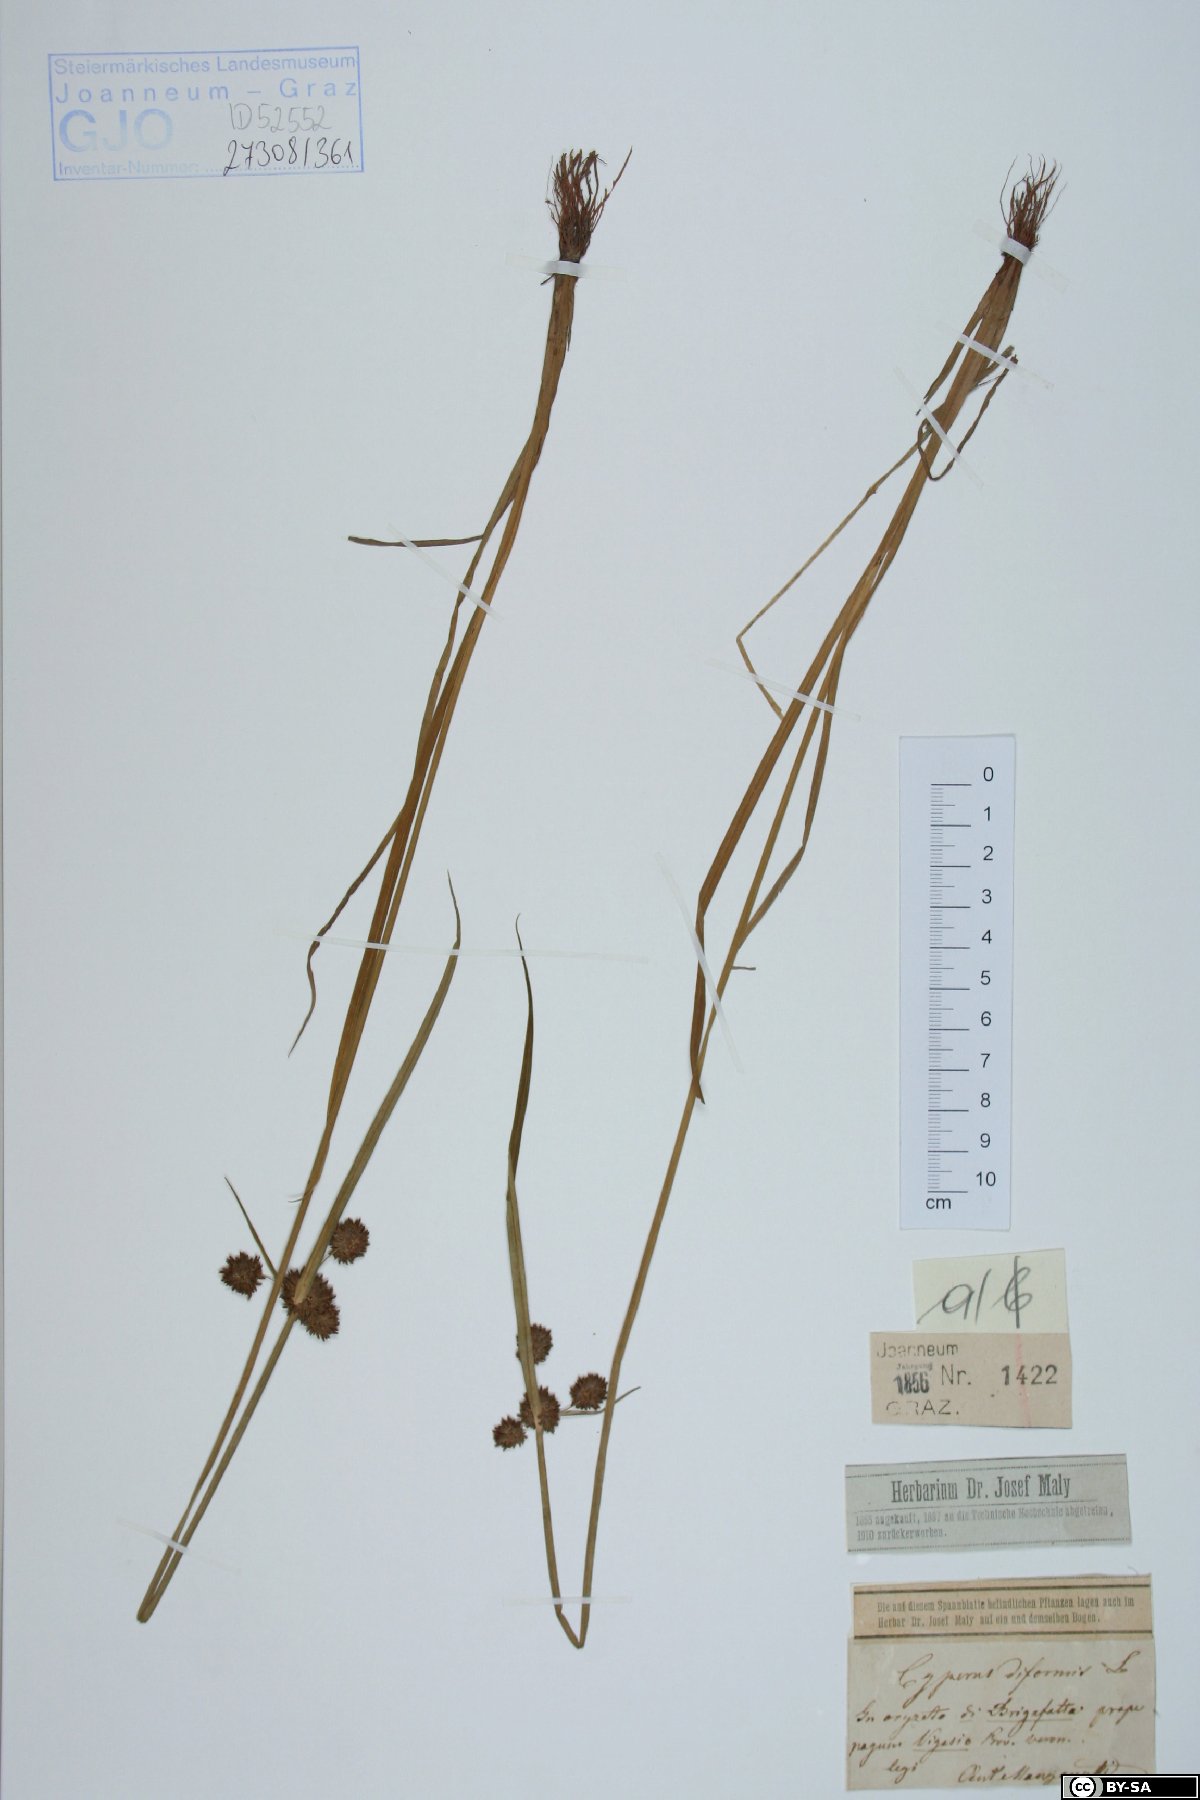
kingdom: Plantae
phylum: Tracheophyta
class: Liliopsida
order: Poales
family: Cyperaceae
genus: Cyperus
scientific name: Cyperus difformis
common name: Variable flatsedge
